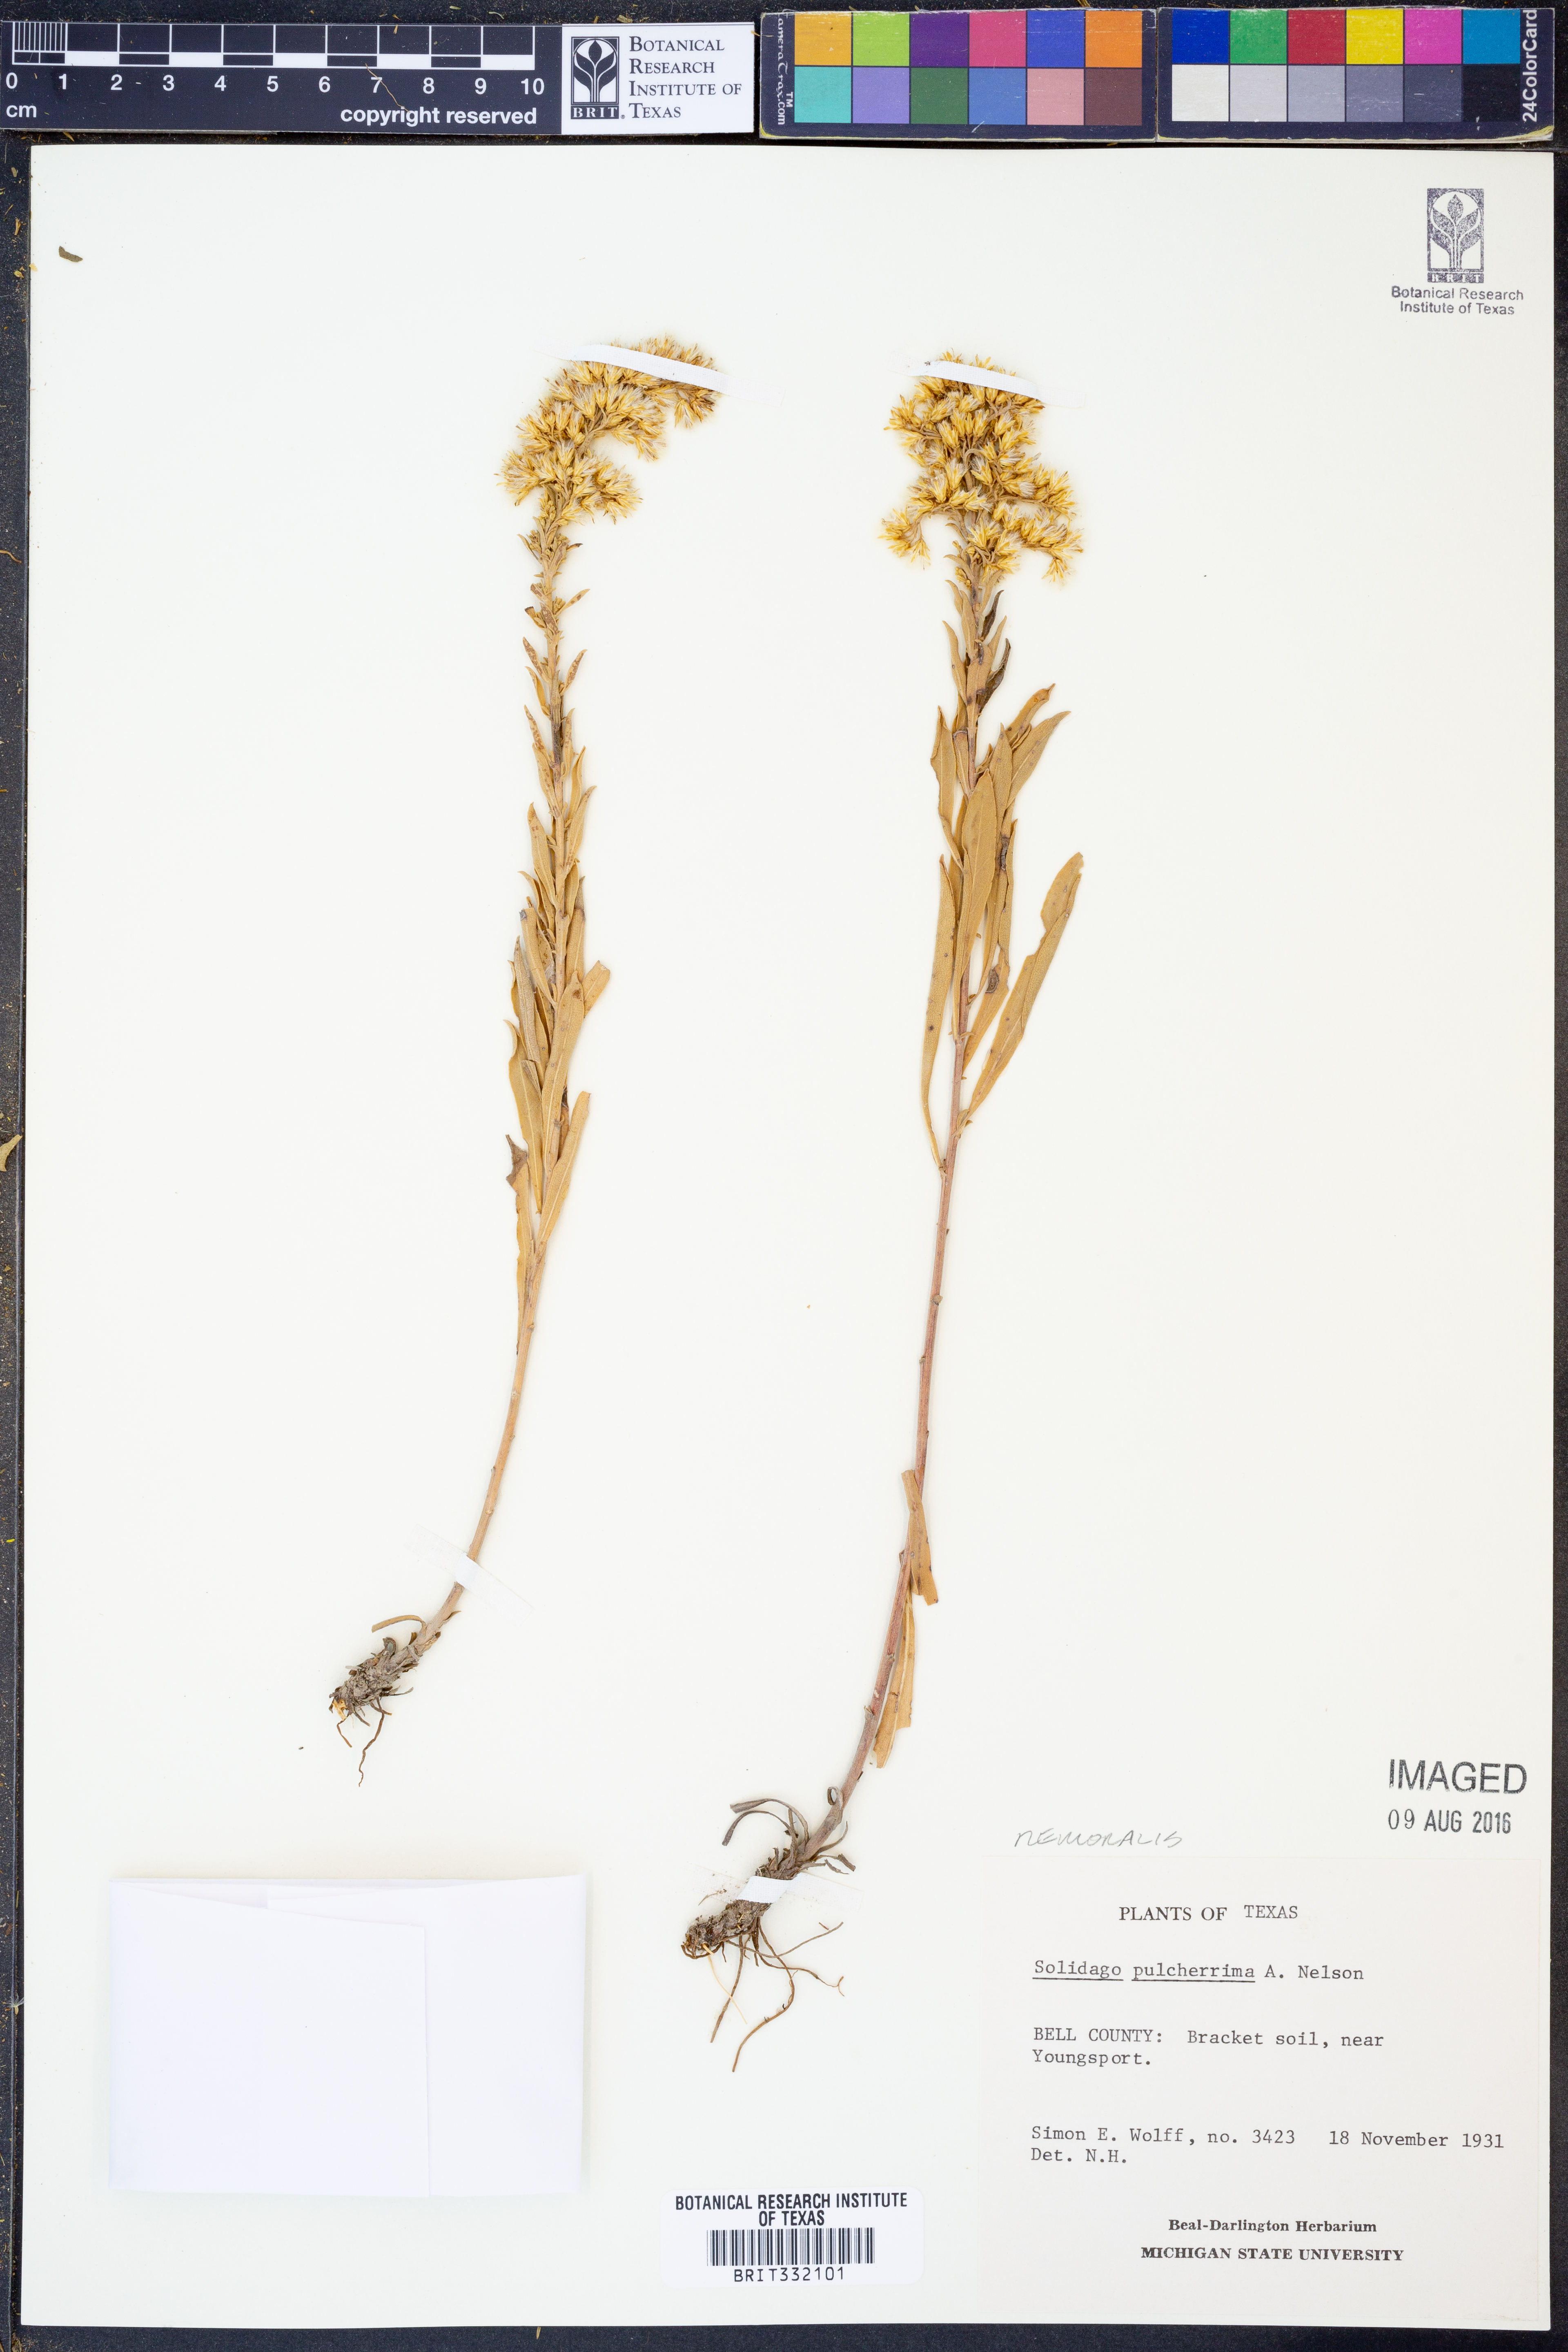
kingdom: Plantae
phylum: Tracheophyta
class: Magnoliopsida
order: Asterales
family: Asteraceae
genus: Solidago
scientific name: Solidago decemflora
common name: Prairie grey-stemmed goldenrod
